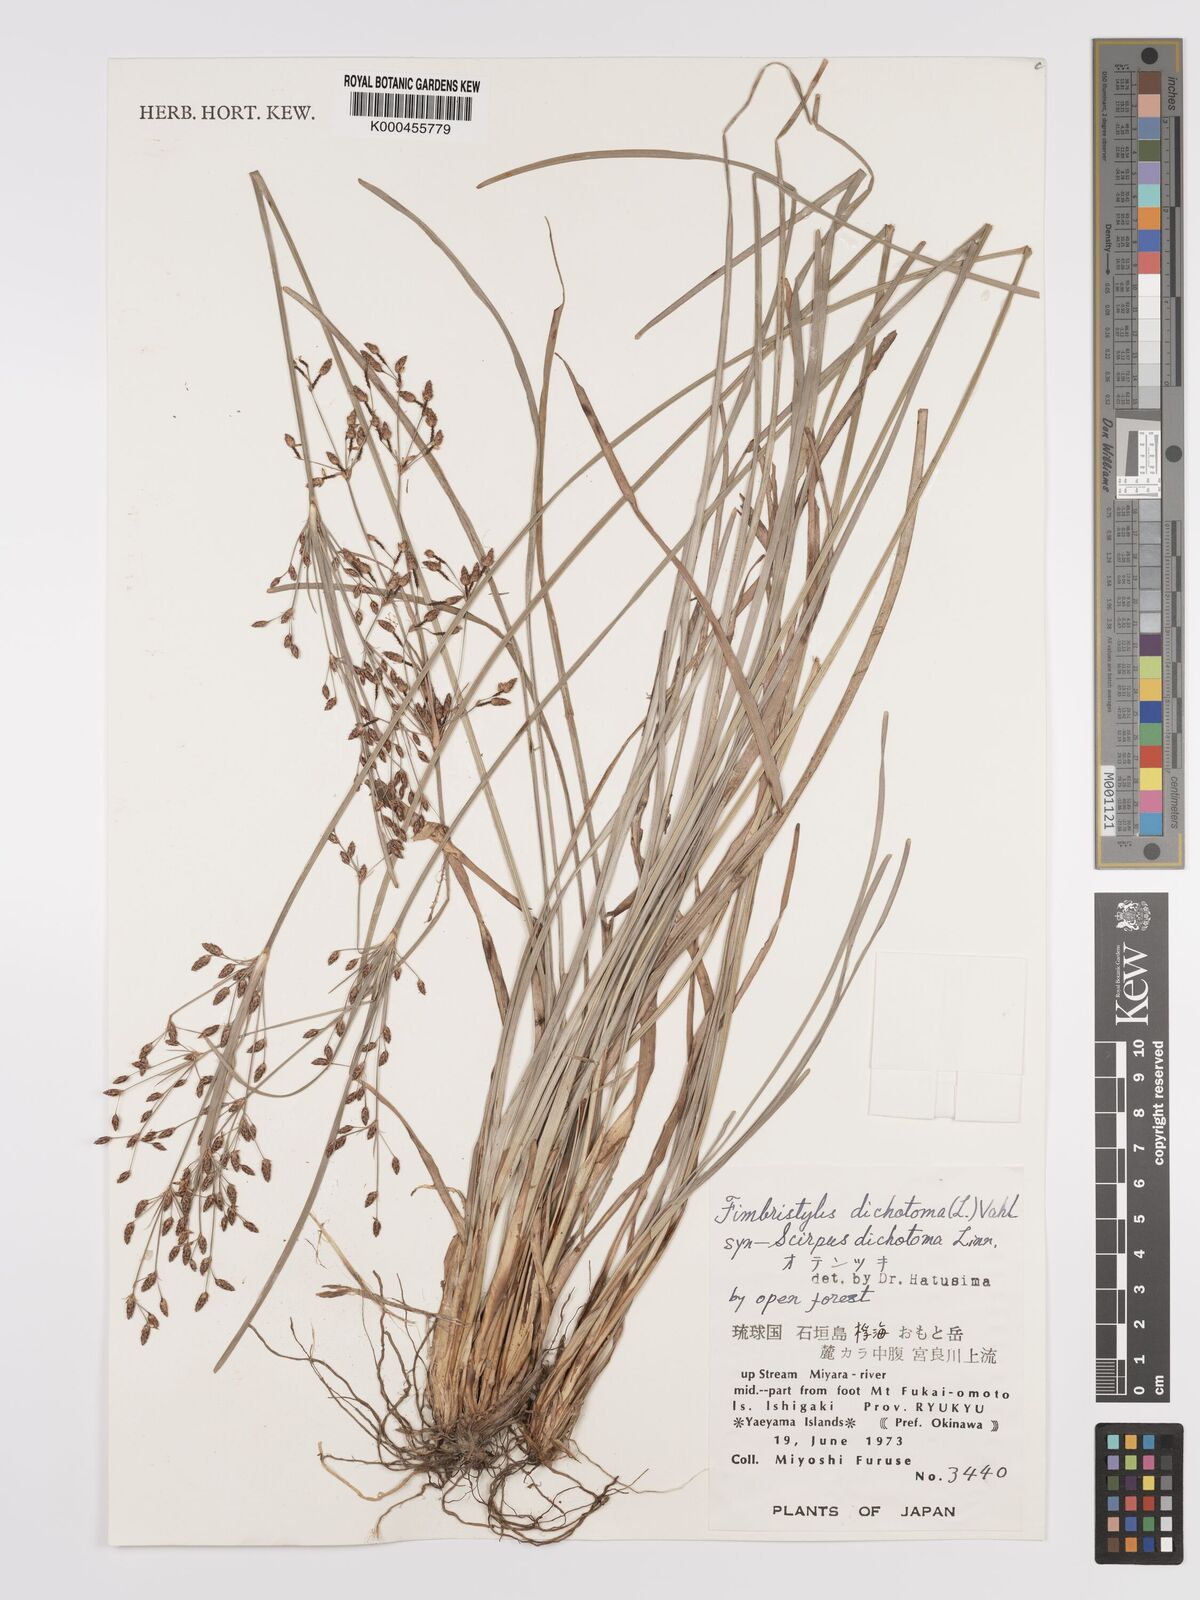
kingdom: Plantae
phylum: Tracheophyta
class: Liliopsida
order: Poales
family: Cyperaceae
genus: Fimbristylis
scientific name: Fimbristylis dichotoma
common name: Forked fimbry
